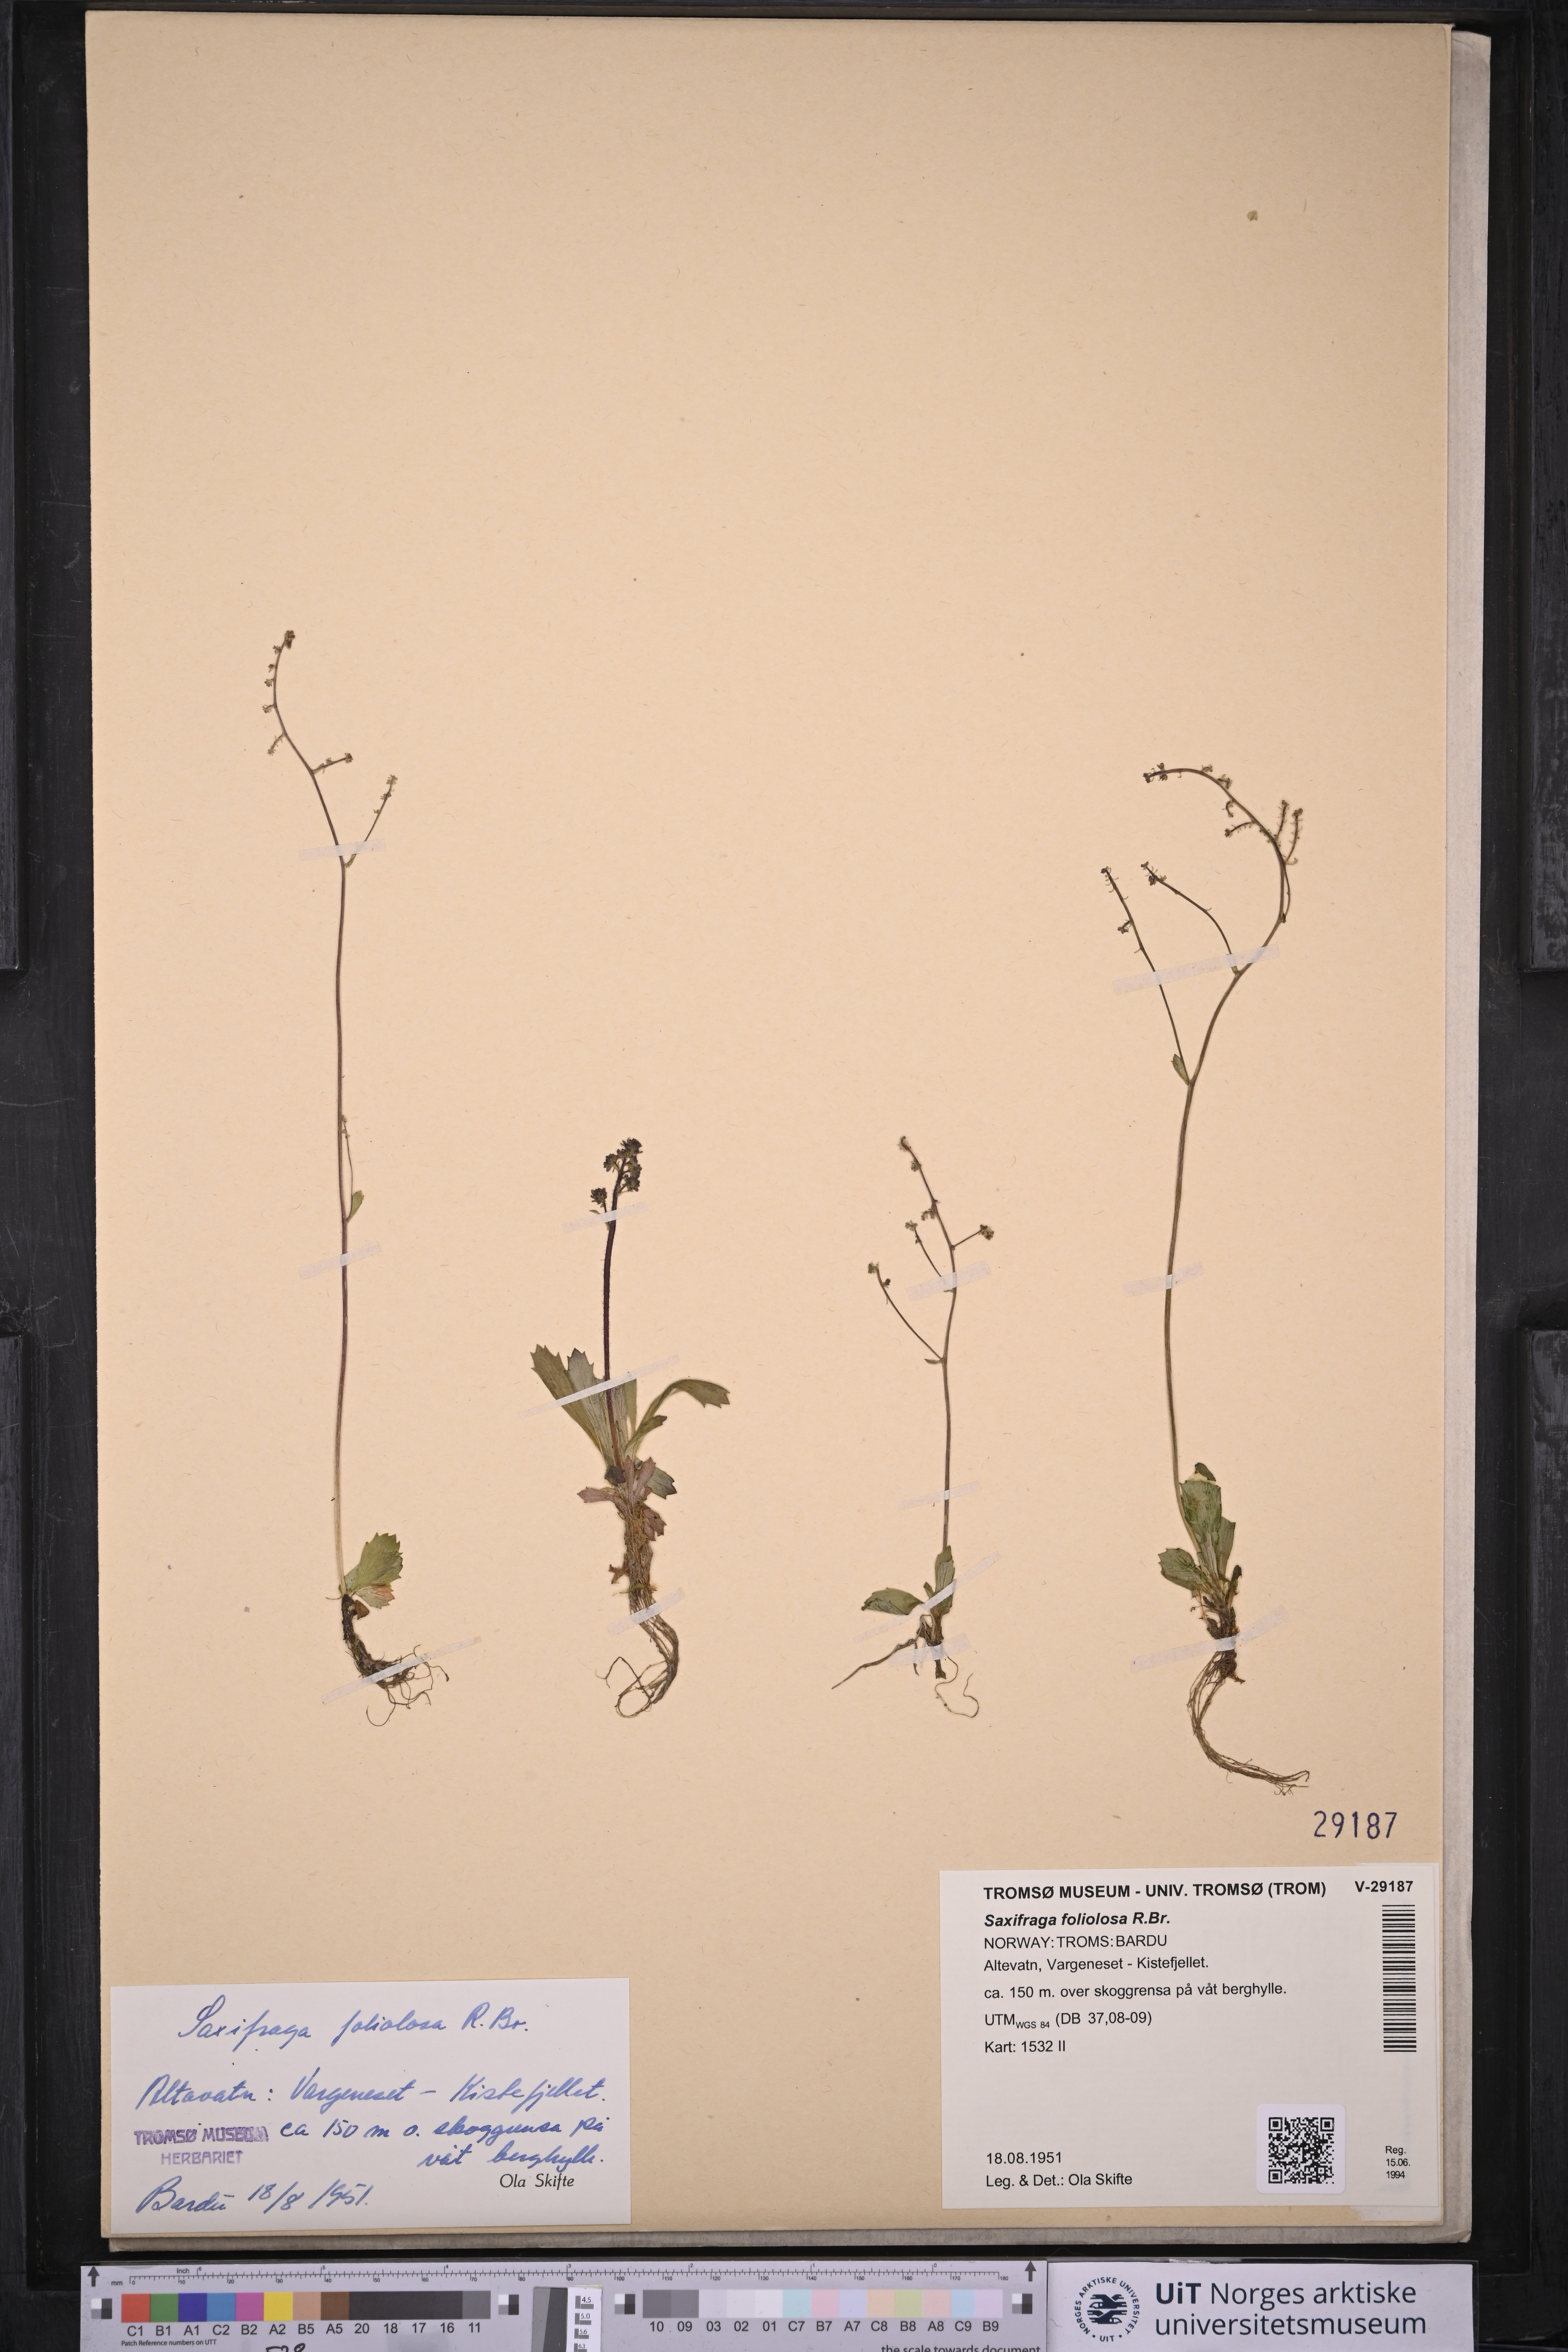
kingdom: Plantae
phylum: Tracheophyta
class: Magnoliopsida
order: Saxifragales
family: Saxifragaceae
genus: Micranthes
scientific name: Micranthes foliolosa
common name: Leafystem saxifrage
